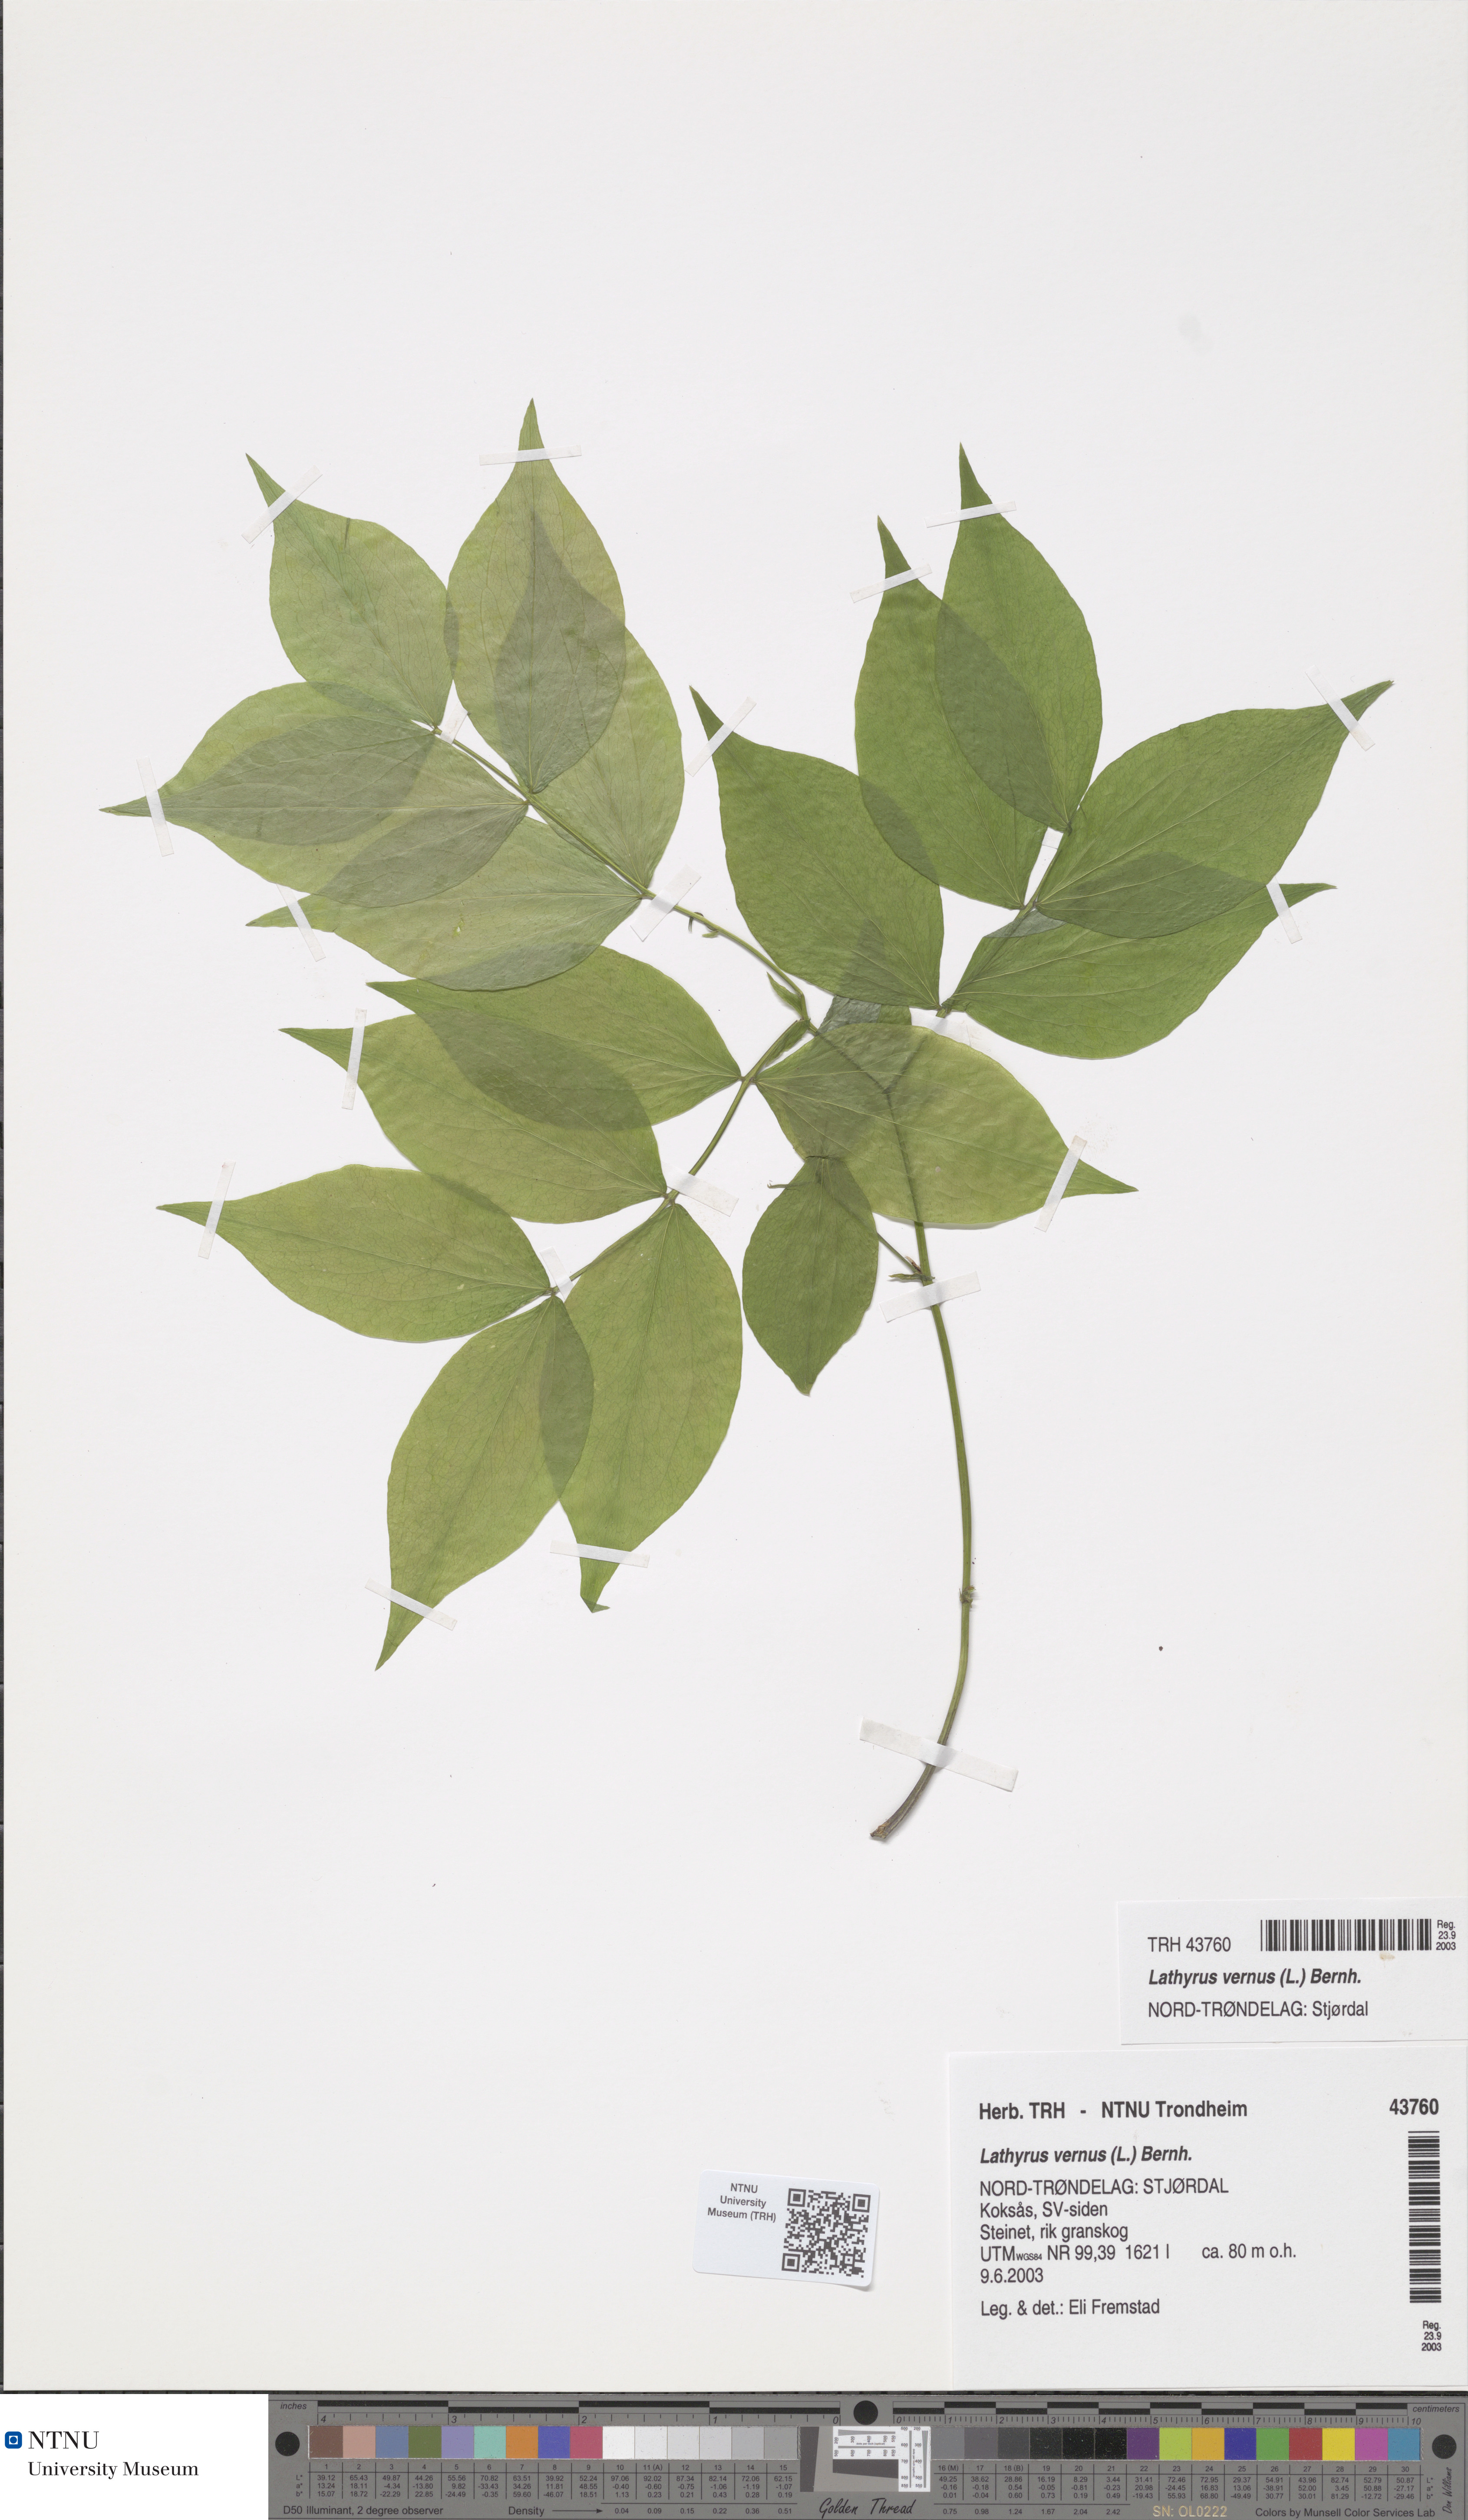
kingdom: Plantae
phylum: Tracheophyta
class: Magnoliopsida
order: Fabales
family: Fabaceae
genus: Lathyrus
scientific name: Lathyrus vernus
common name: Spring pea
